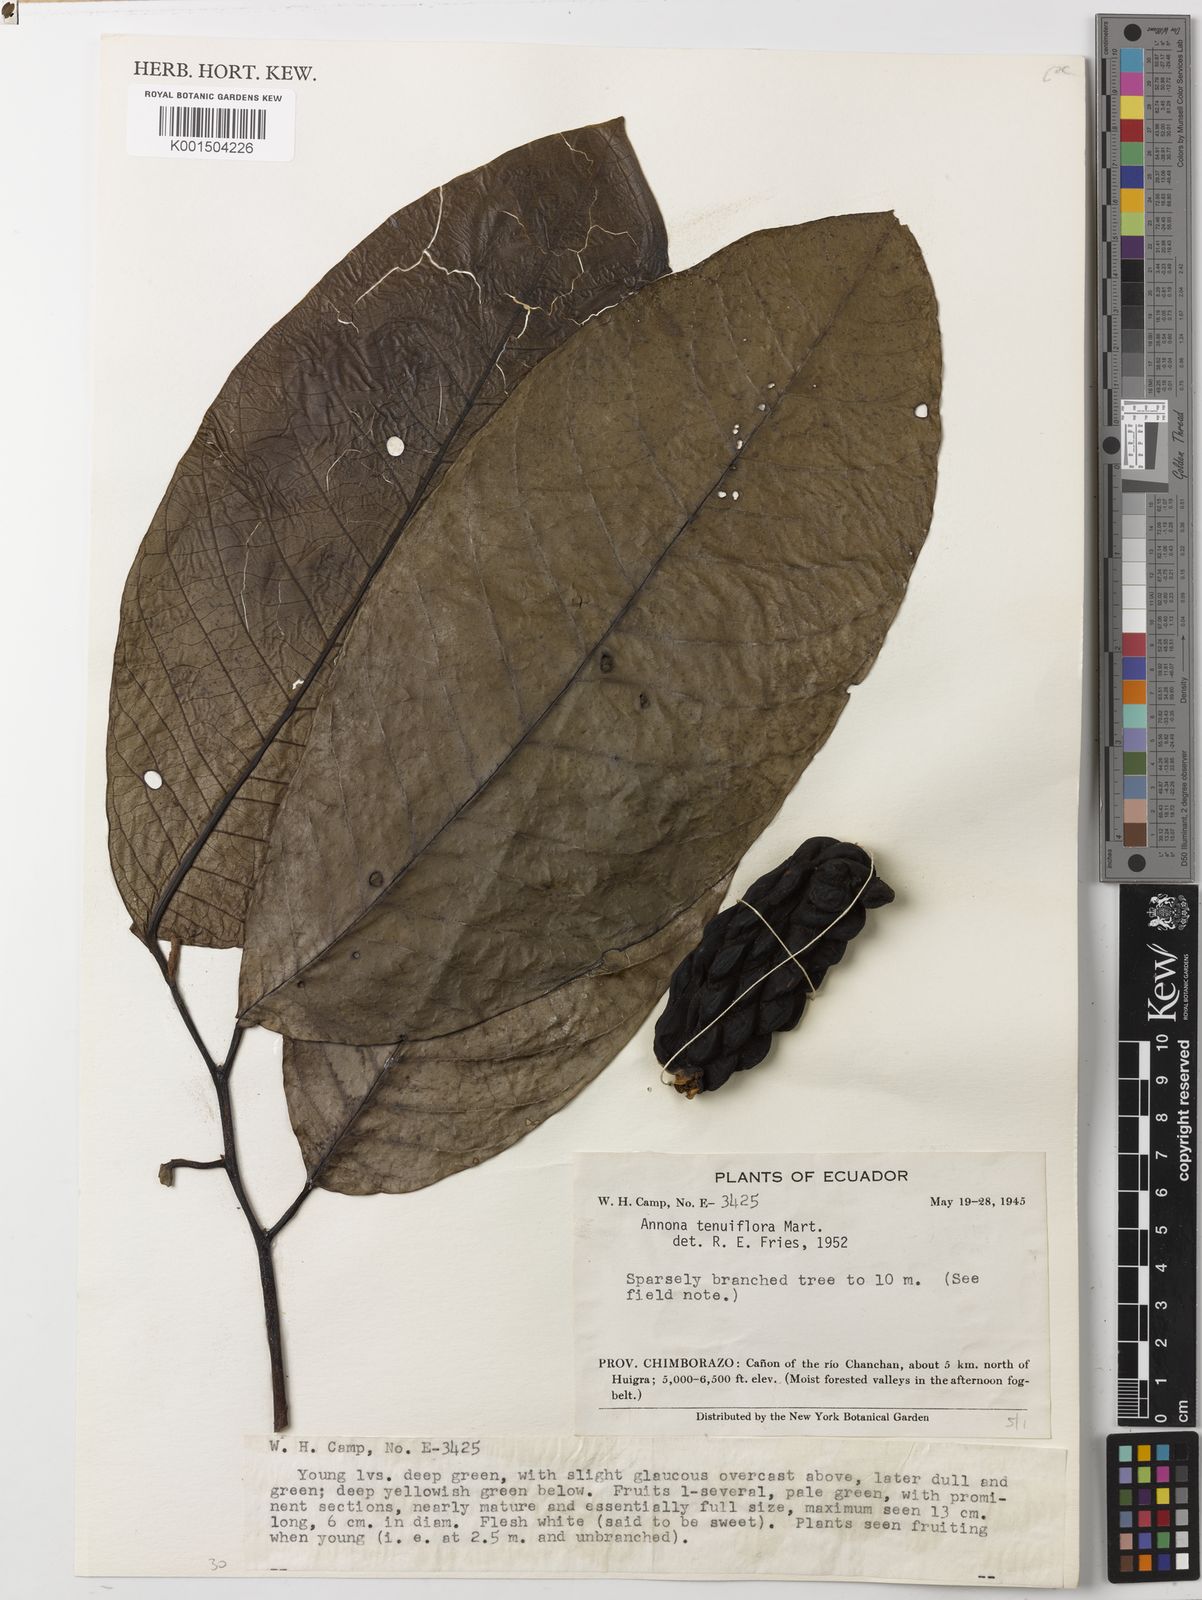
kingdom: Plantae
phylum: Tracheophyta
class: Magnoliopsida
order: Magnoliales
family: Annonaceae
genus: Annona
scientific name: Annona tenuiflora
